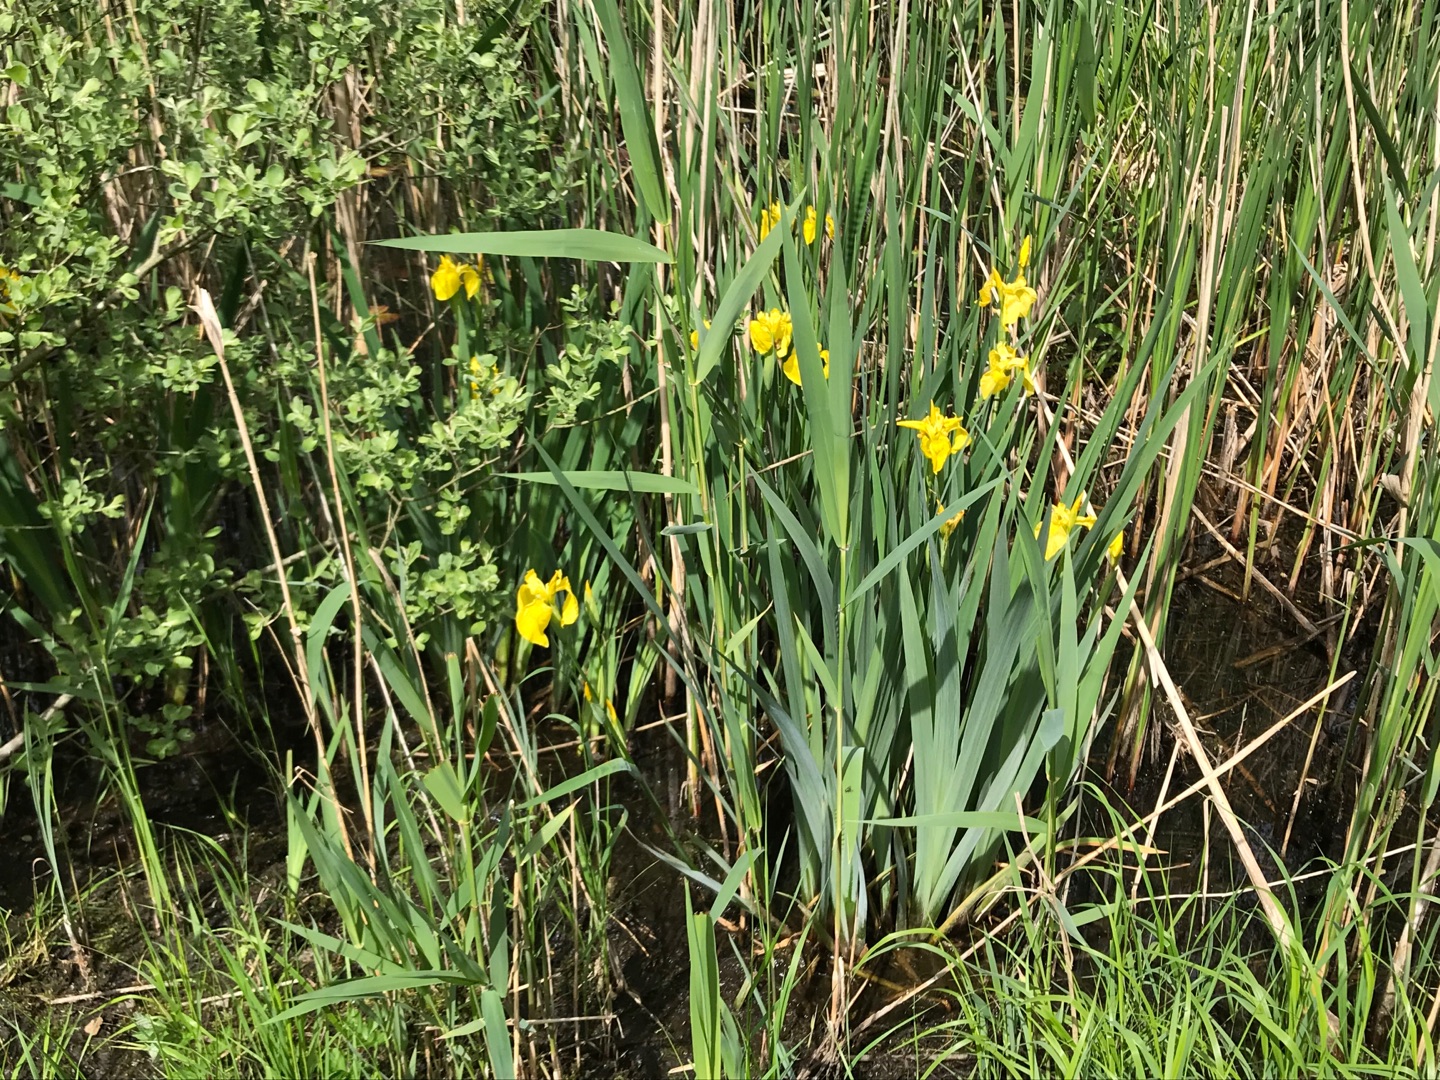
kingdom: Plantae
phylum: Tracheophyta
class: Liliopsida
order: Asparagales
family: Iridaceae
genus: Iris
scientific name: Iris pseudacorus
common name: Gul iris
